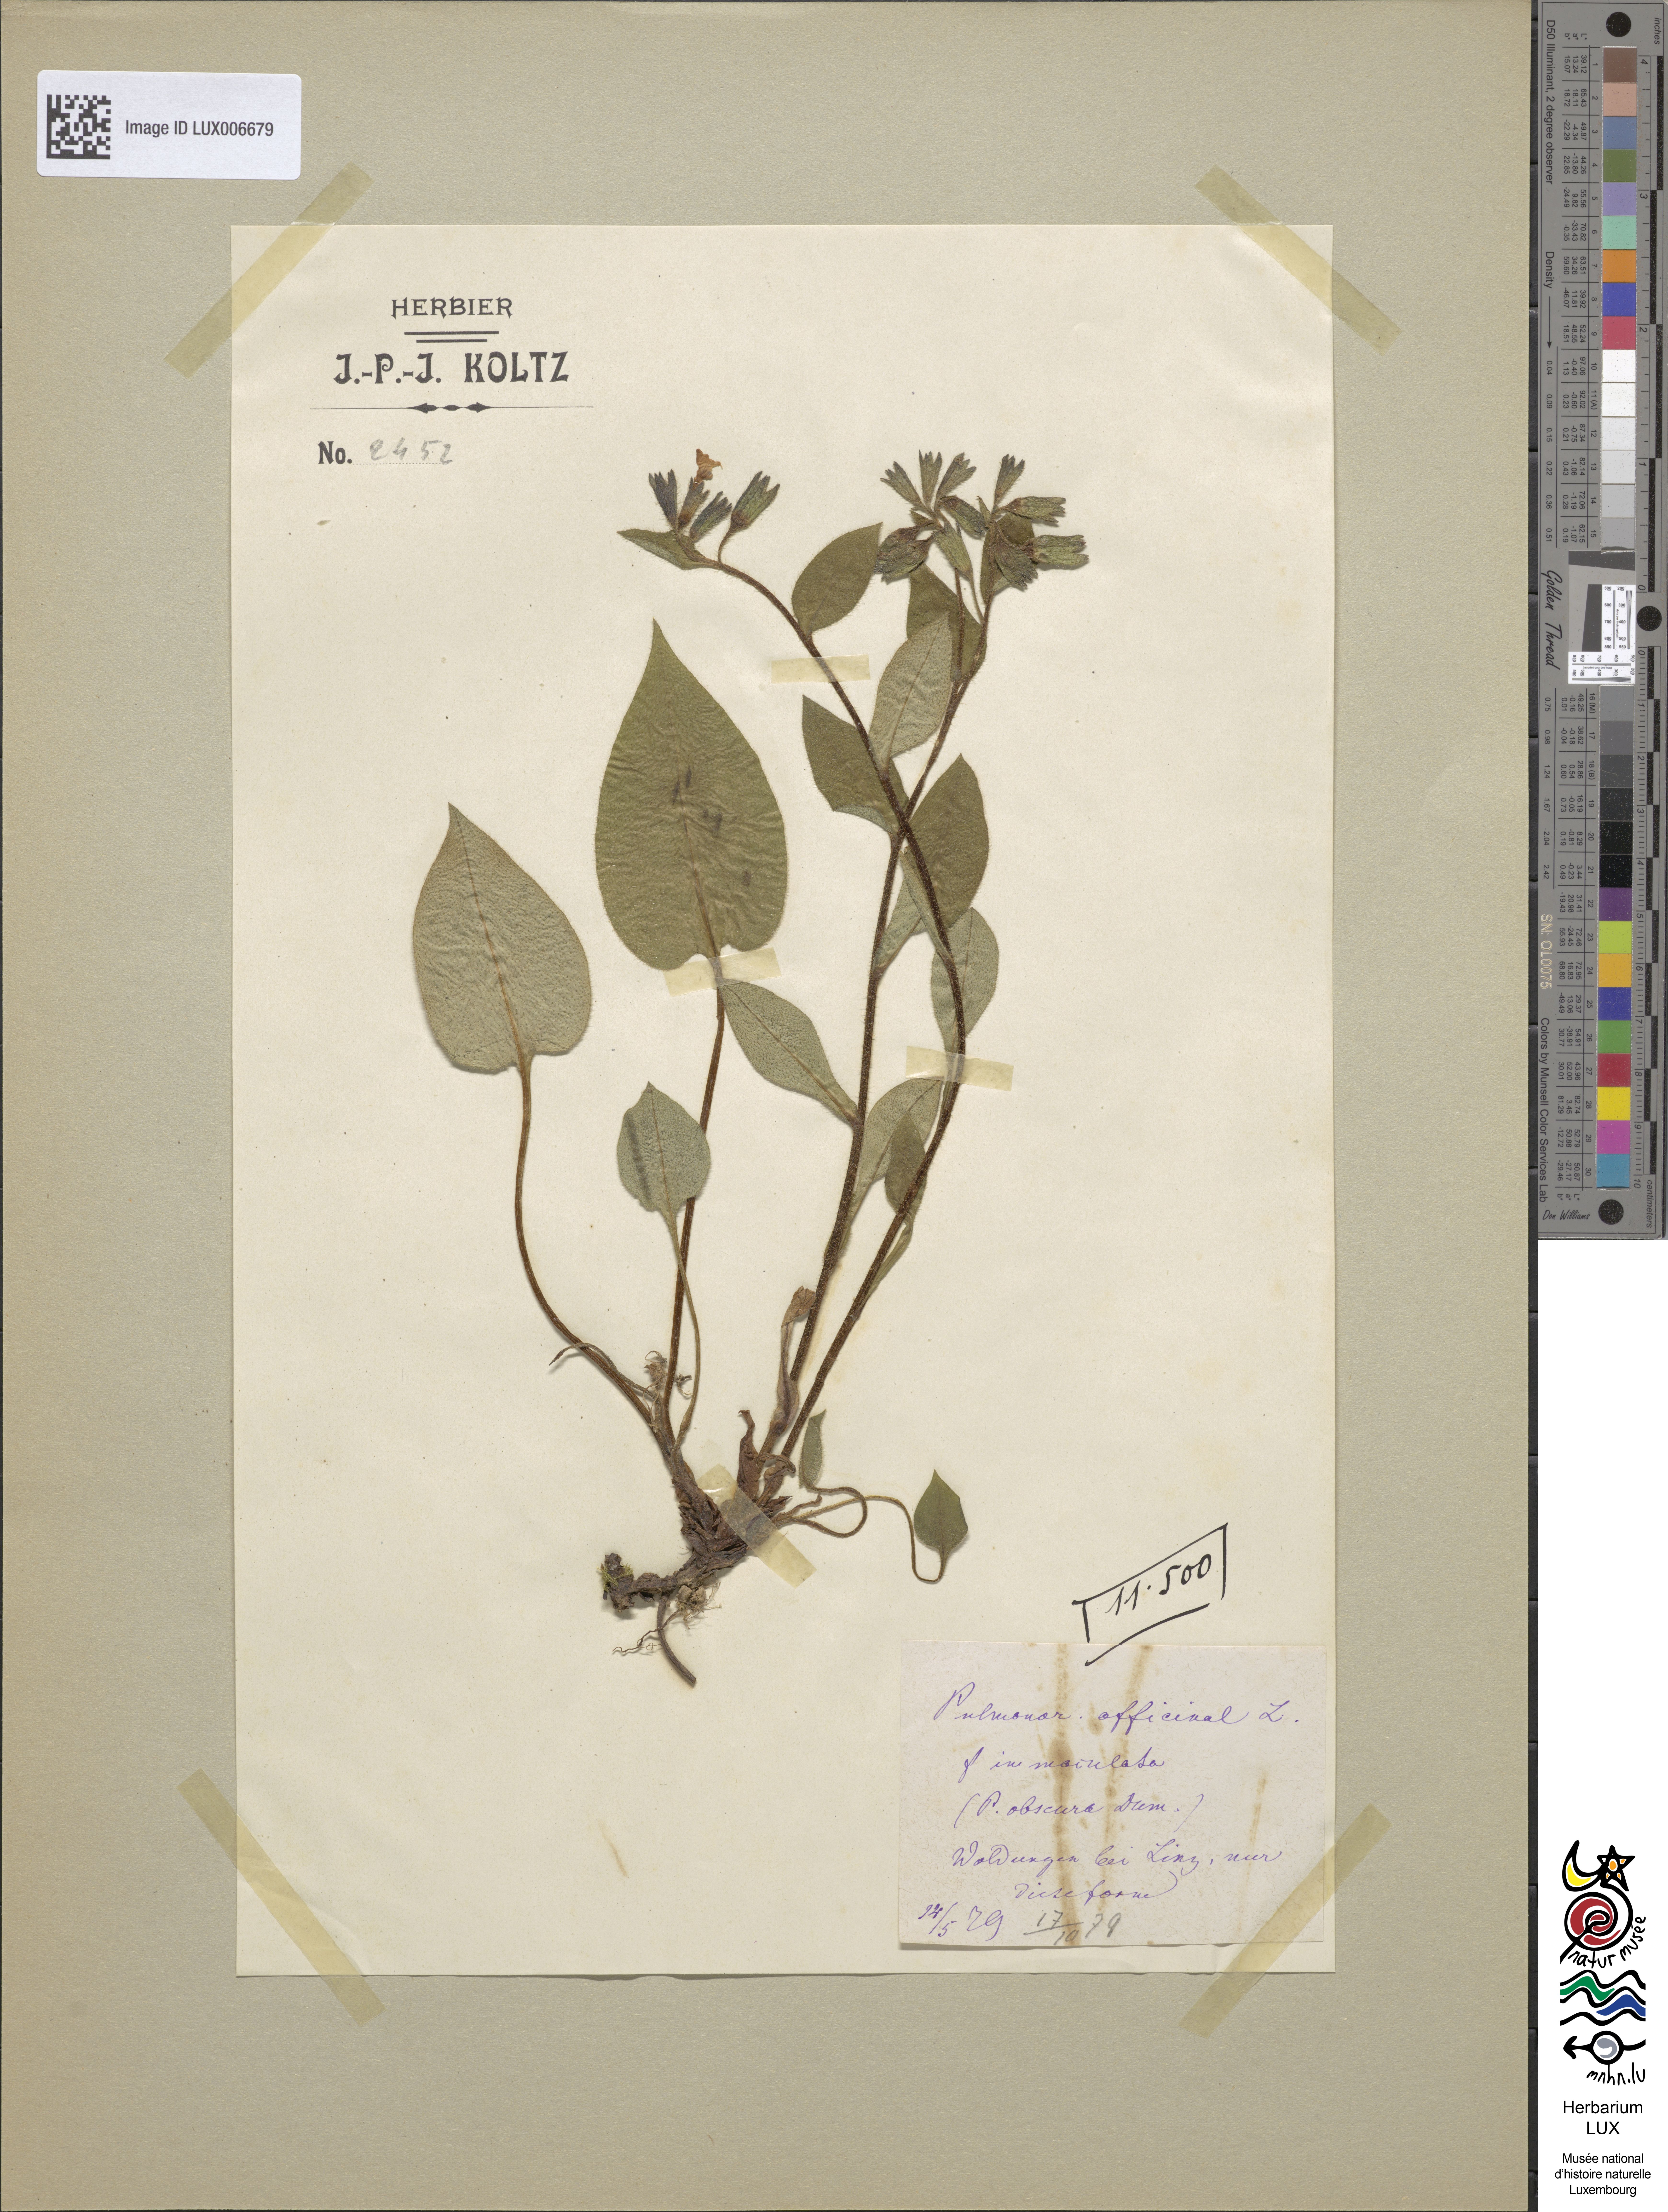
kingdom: Plantae
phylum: Tracheophyta
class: Magnoliopsida
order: Boraginales
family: Boraginaceae
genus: Pulmonaria
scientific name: Pulmonaria obscura
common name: Suffolk lungwort
